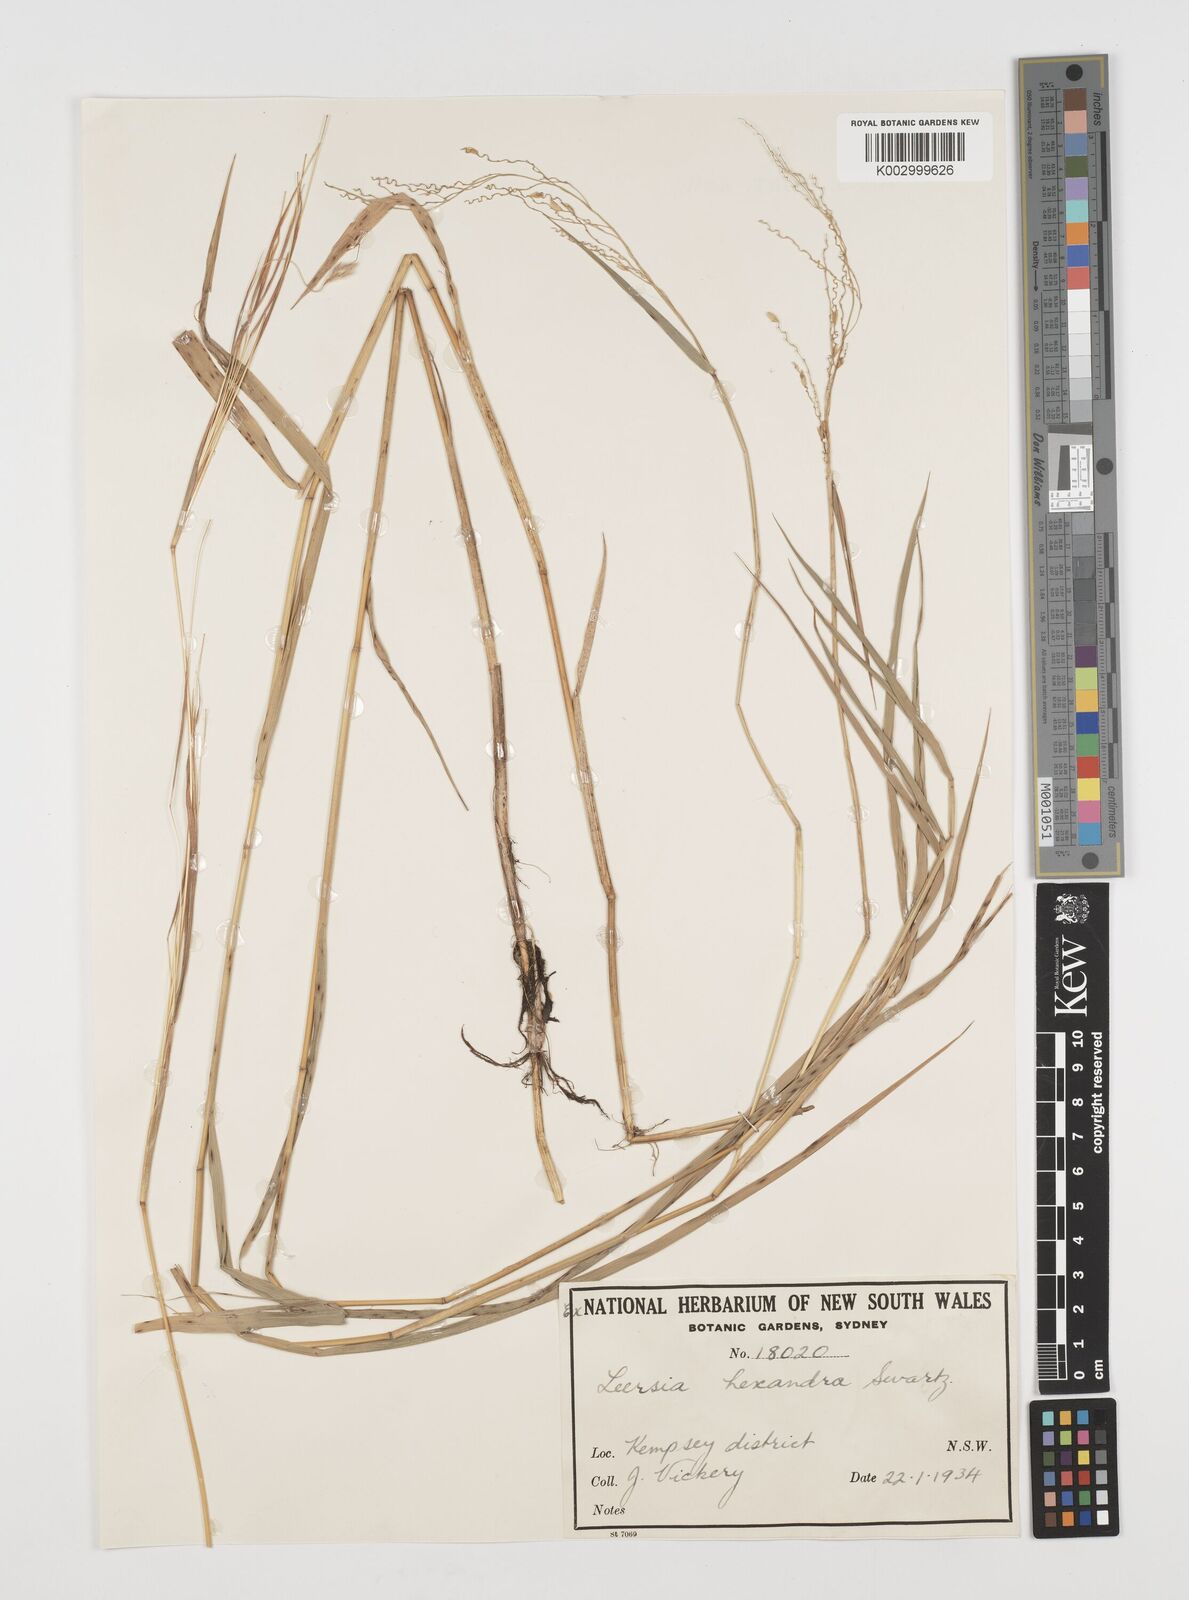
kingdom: Plantae
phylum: Tracheophyta
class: Liliopsida
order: Poales
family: Poaceae
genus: Leersia
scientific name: Leersia hexandra
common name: Southern cut grass
